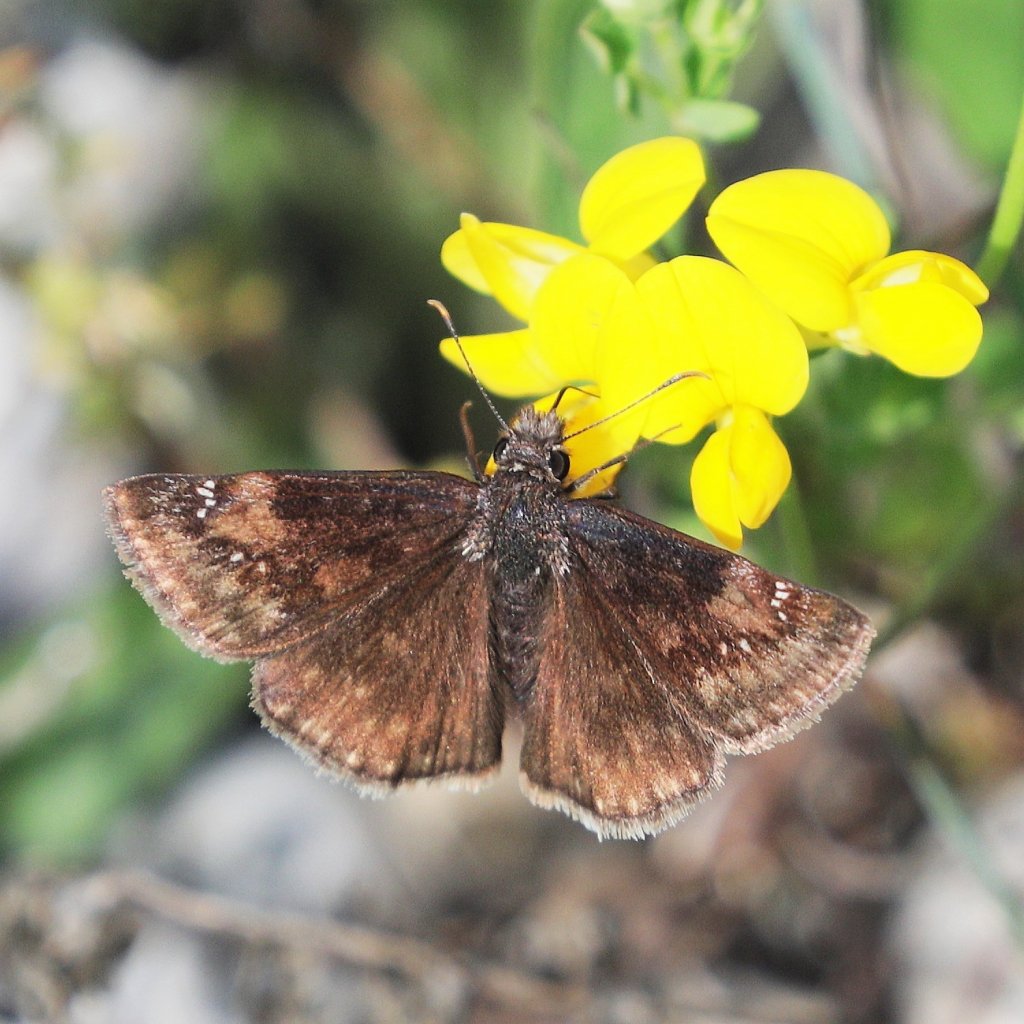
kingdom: Animalia
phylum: Arthropoda
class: Insecta
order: Lepidoptera
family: Hesperiidae
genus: Gesta
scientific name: Gesta
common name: Wild Indigo Duskywing
